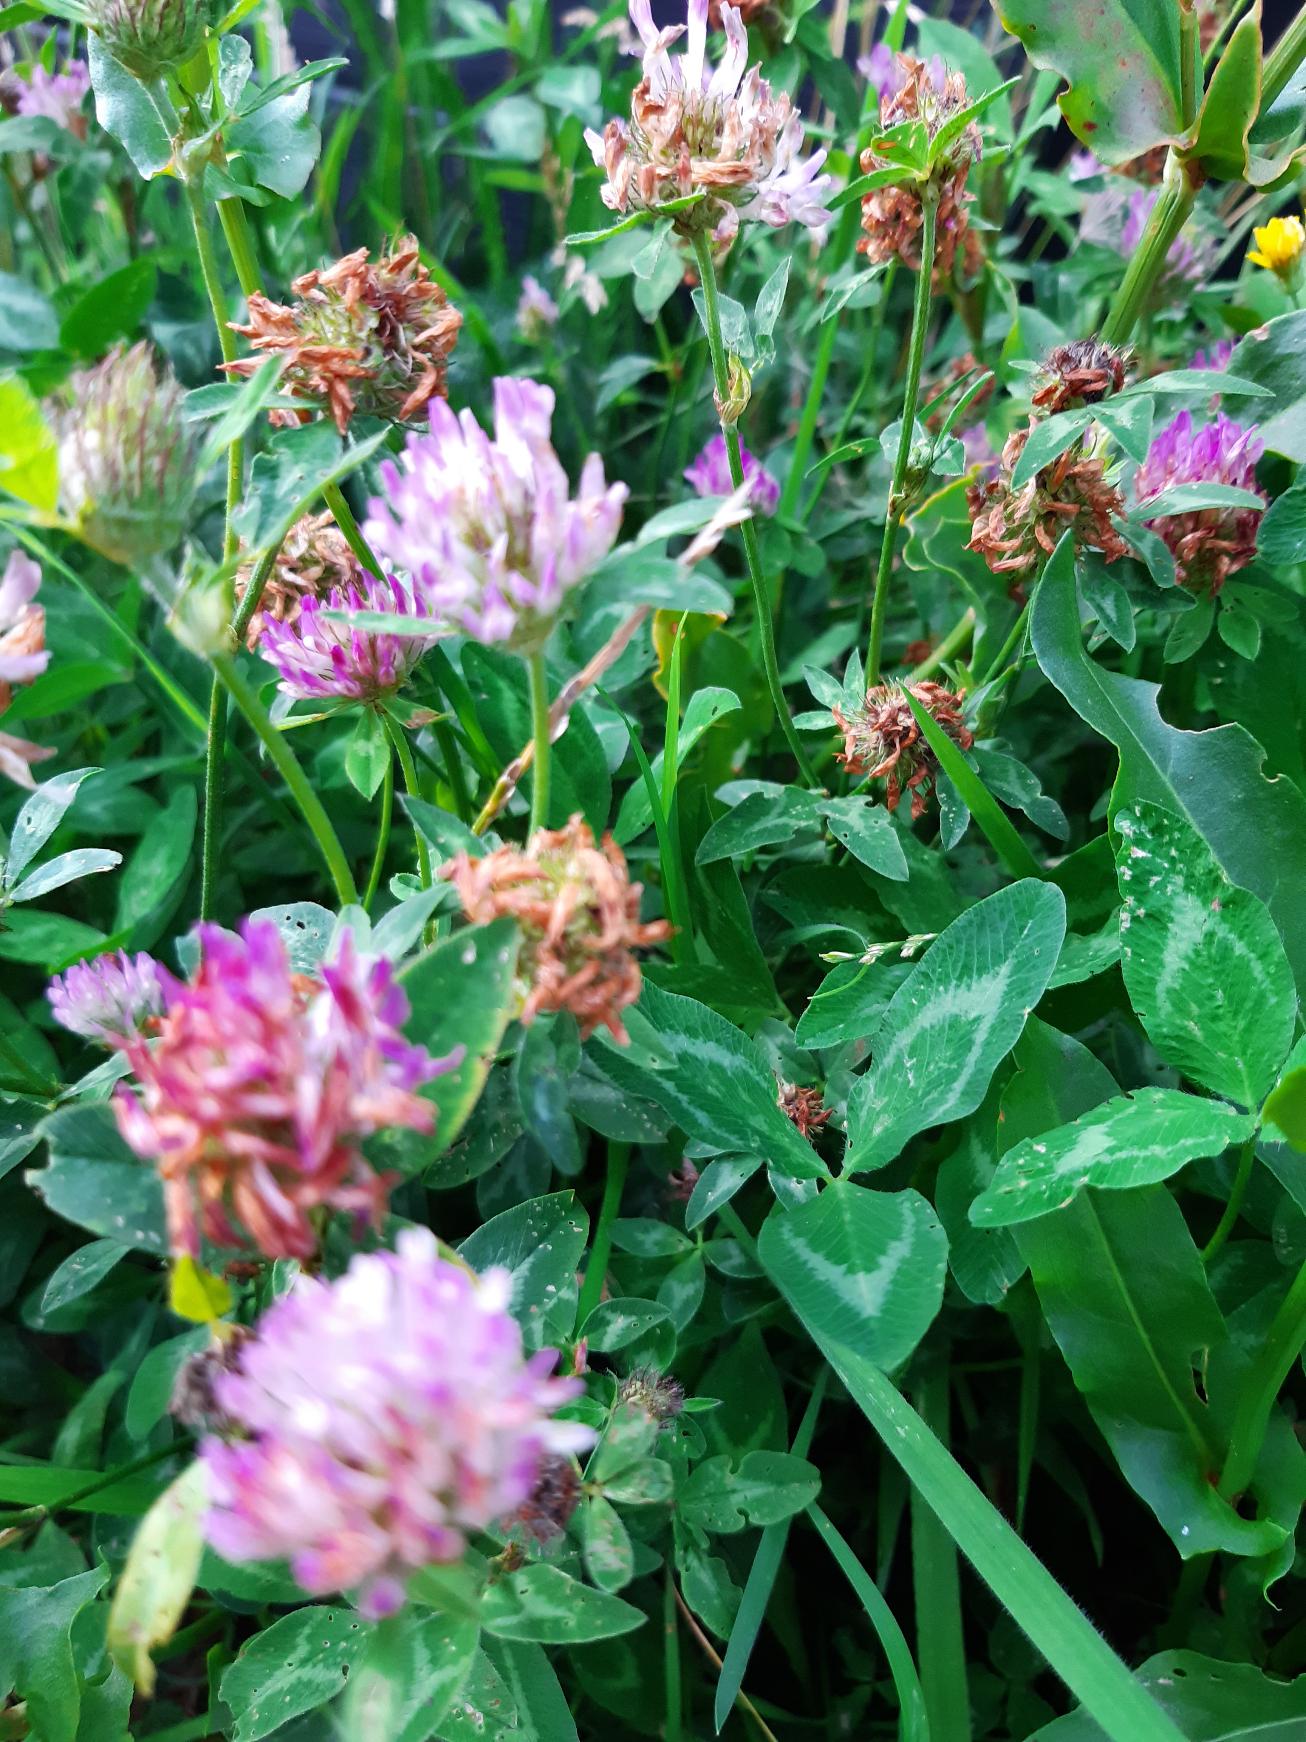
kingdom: Plantae
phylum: Tracheophyta
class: Magnoliopsida
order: Fabales
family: Fabaceae
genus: Trifolium
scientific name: Trifolium pratense
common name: Rød-kløver
